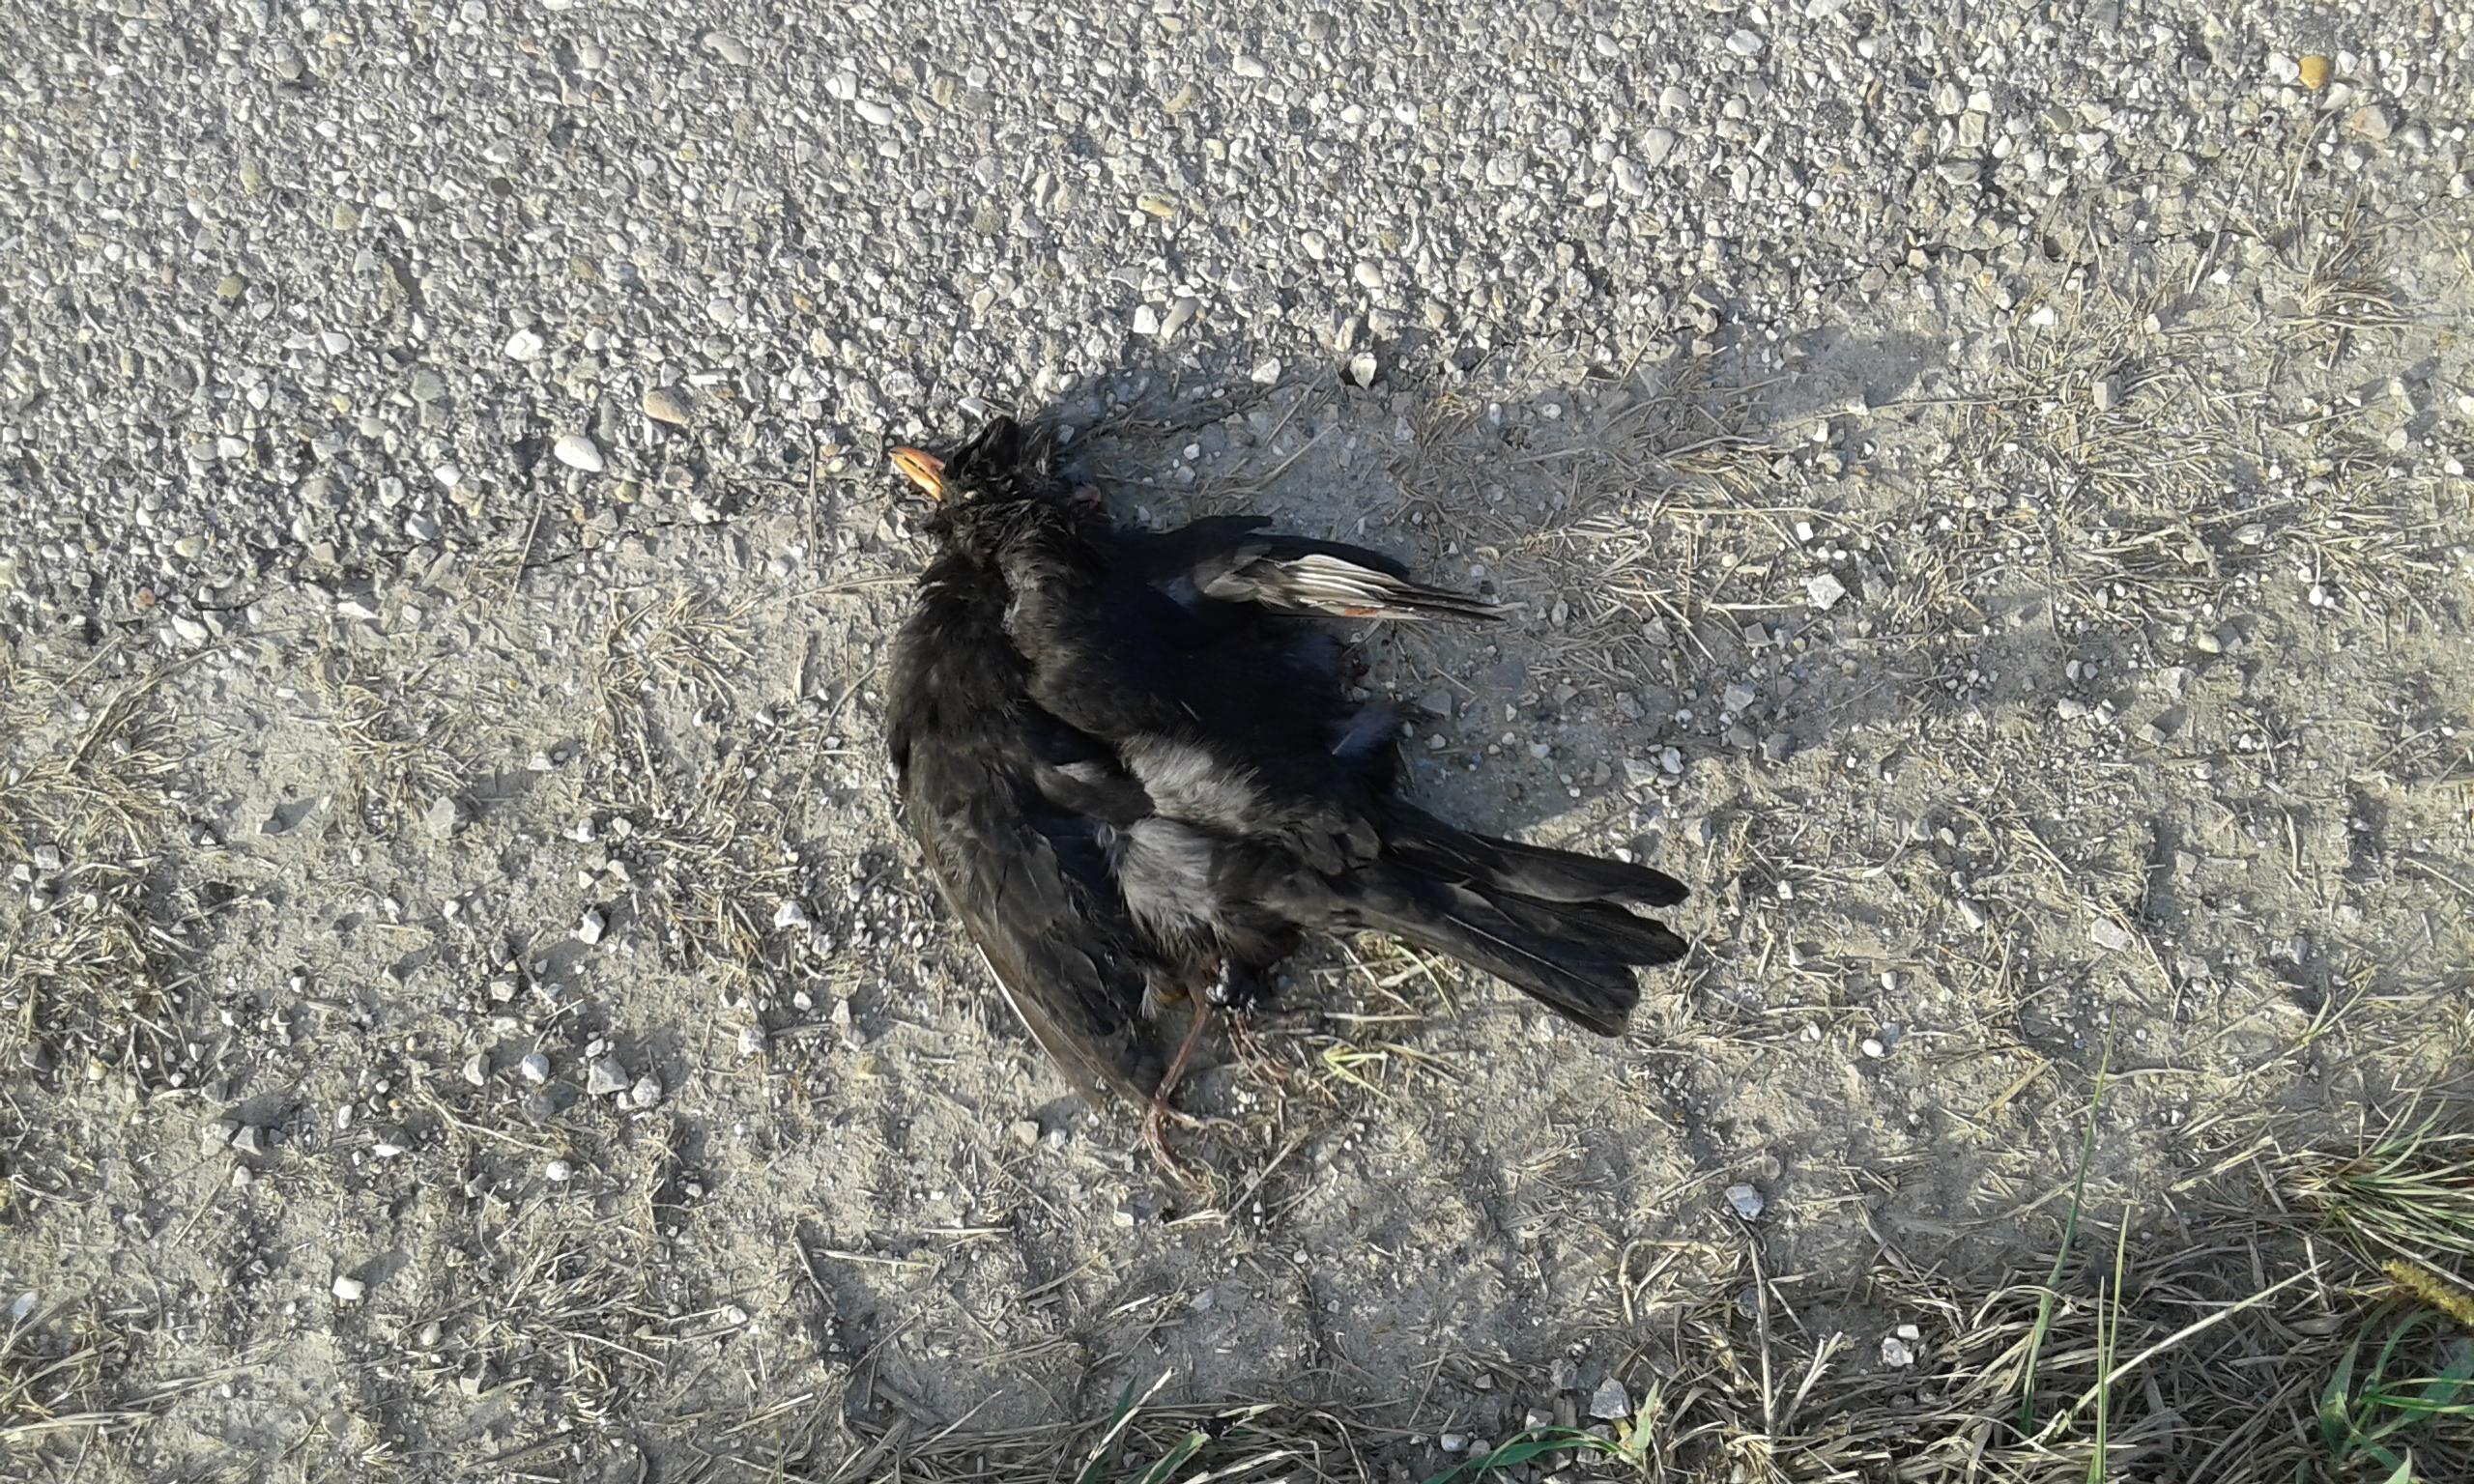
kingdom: Animalia
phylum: Chordata
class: Aves
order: Passeriformes
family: Turdidae
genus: Turdus
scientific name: Turdus merula
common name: Common blackbird
